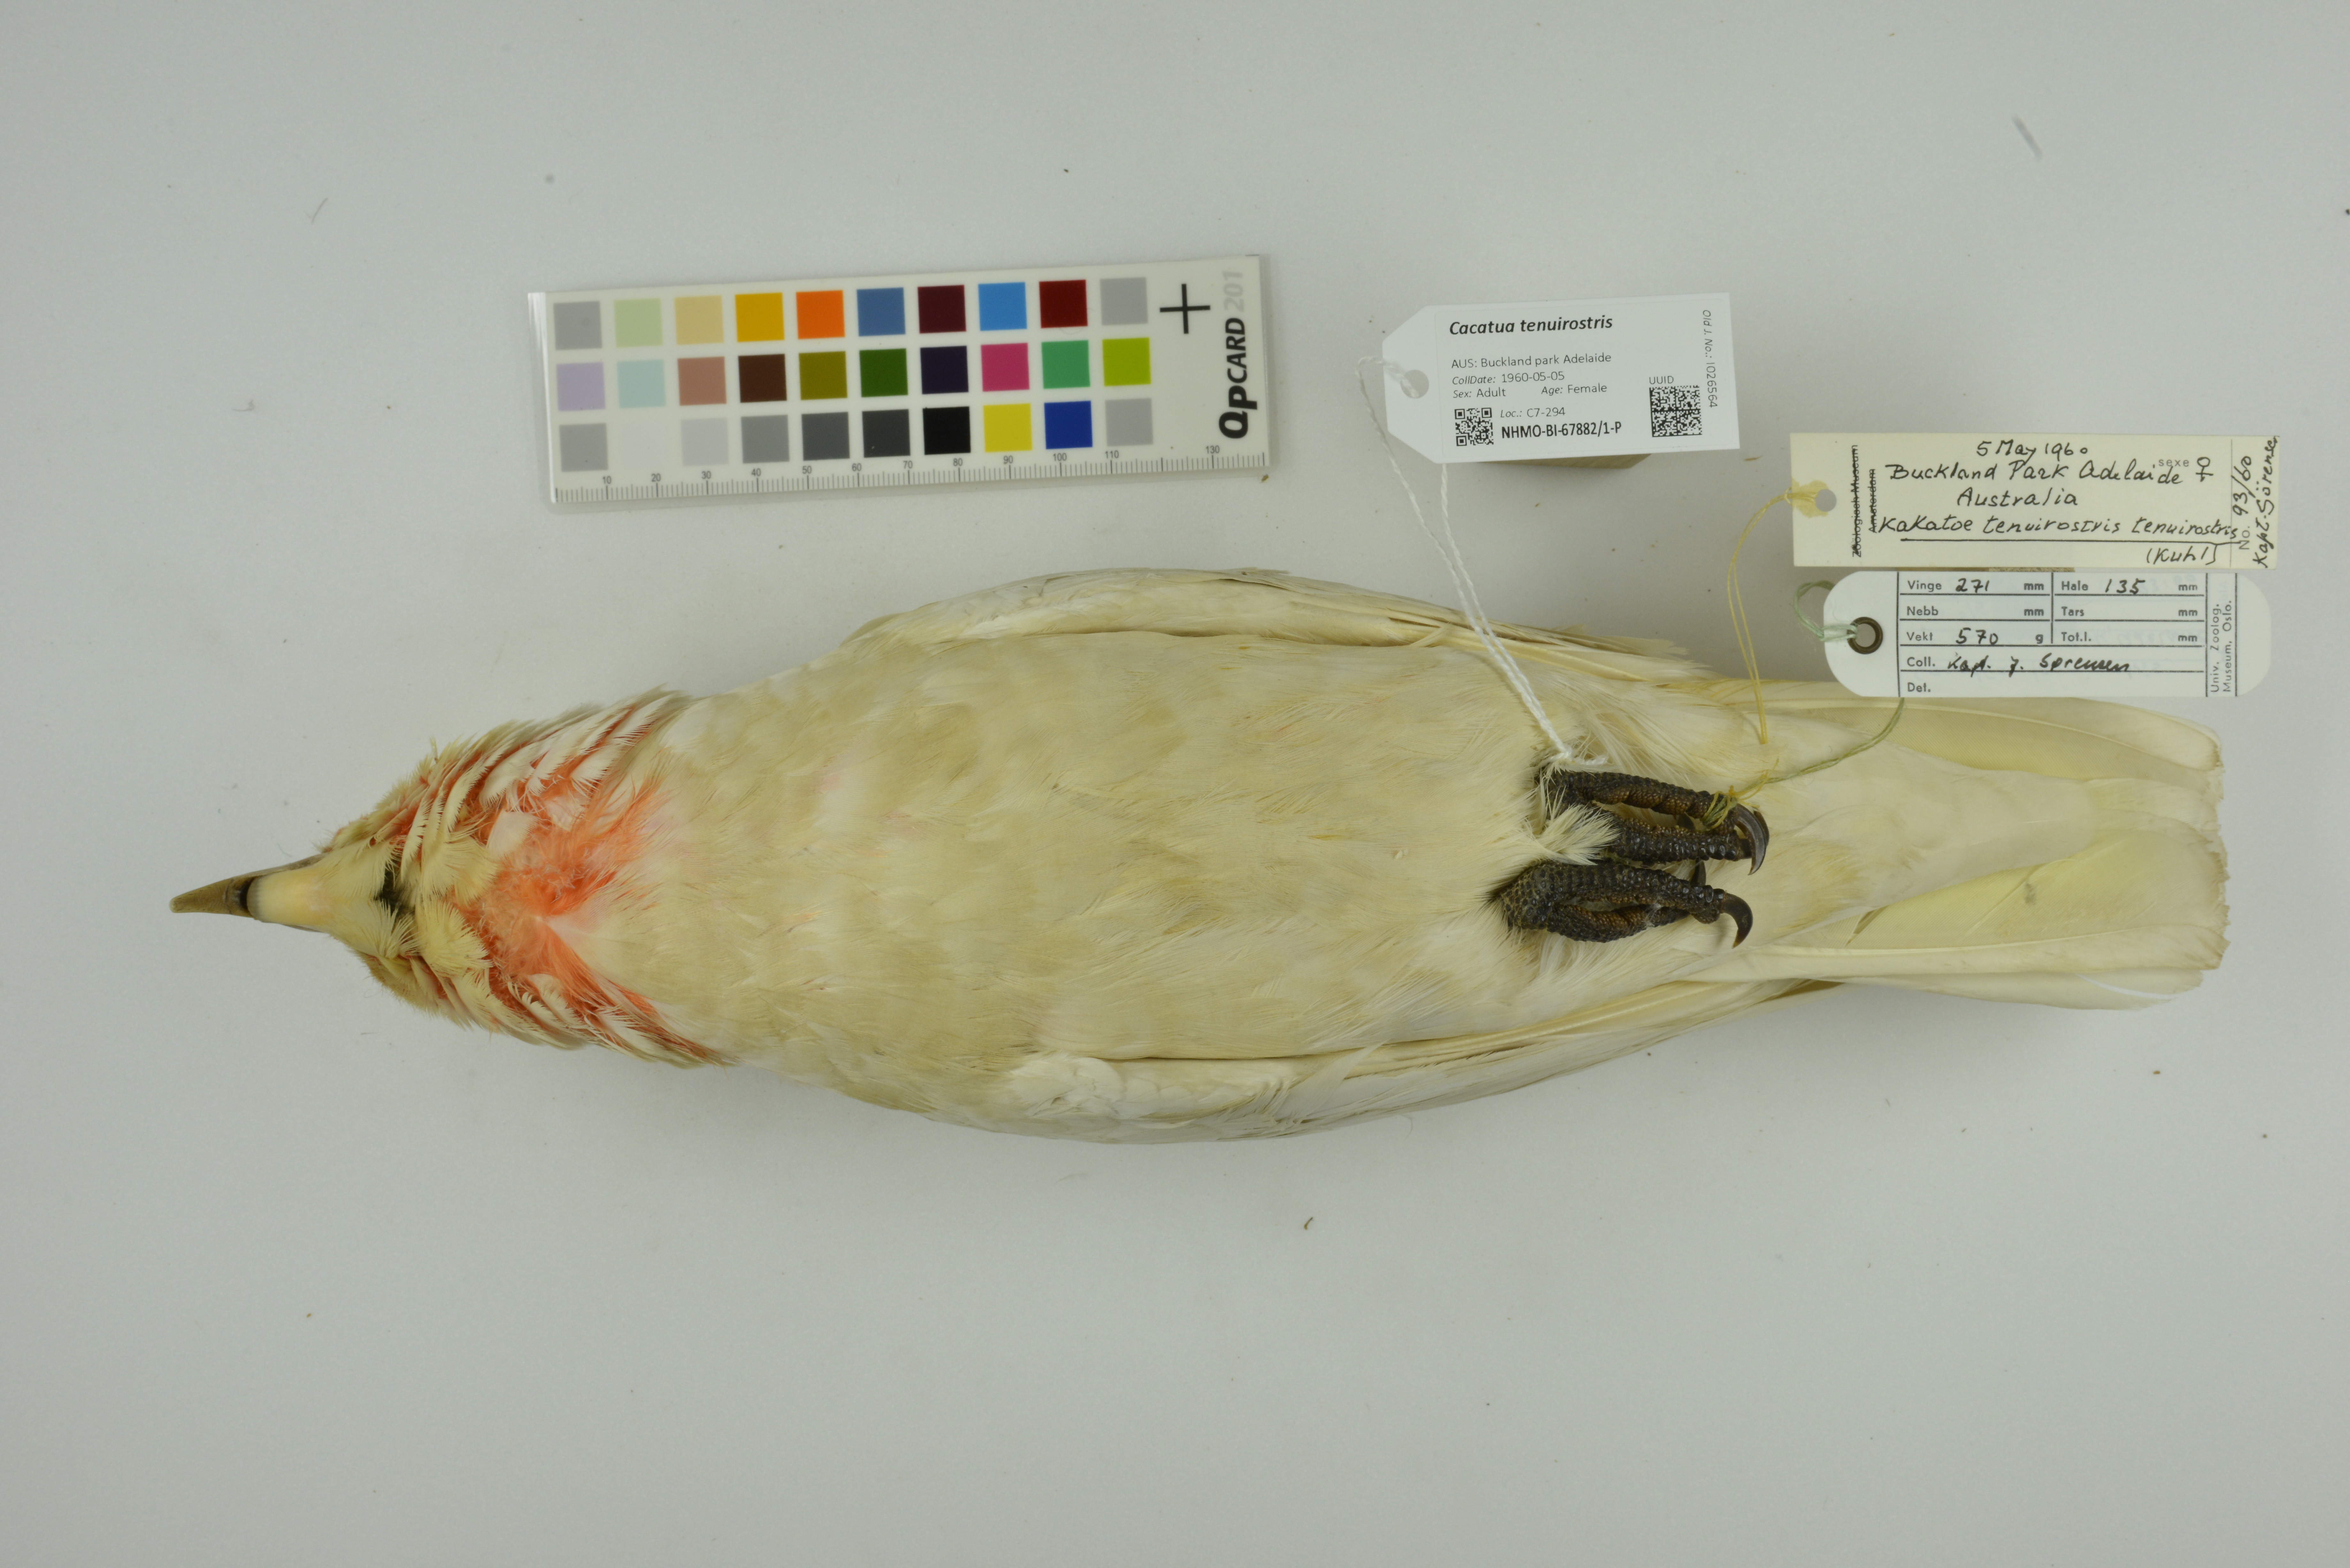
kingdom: Animalia
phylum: Chordata
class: Aves
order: Psittaciformes
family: Psittacidae
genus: Cacatua
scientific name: Cacatua tenuirostris
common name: Long-billed corella
